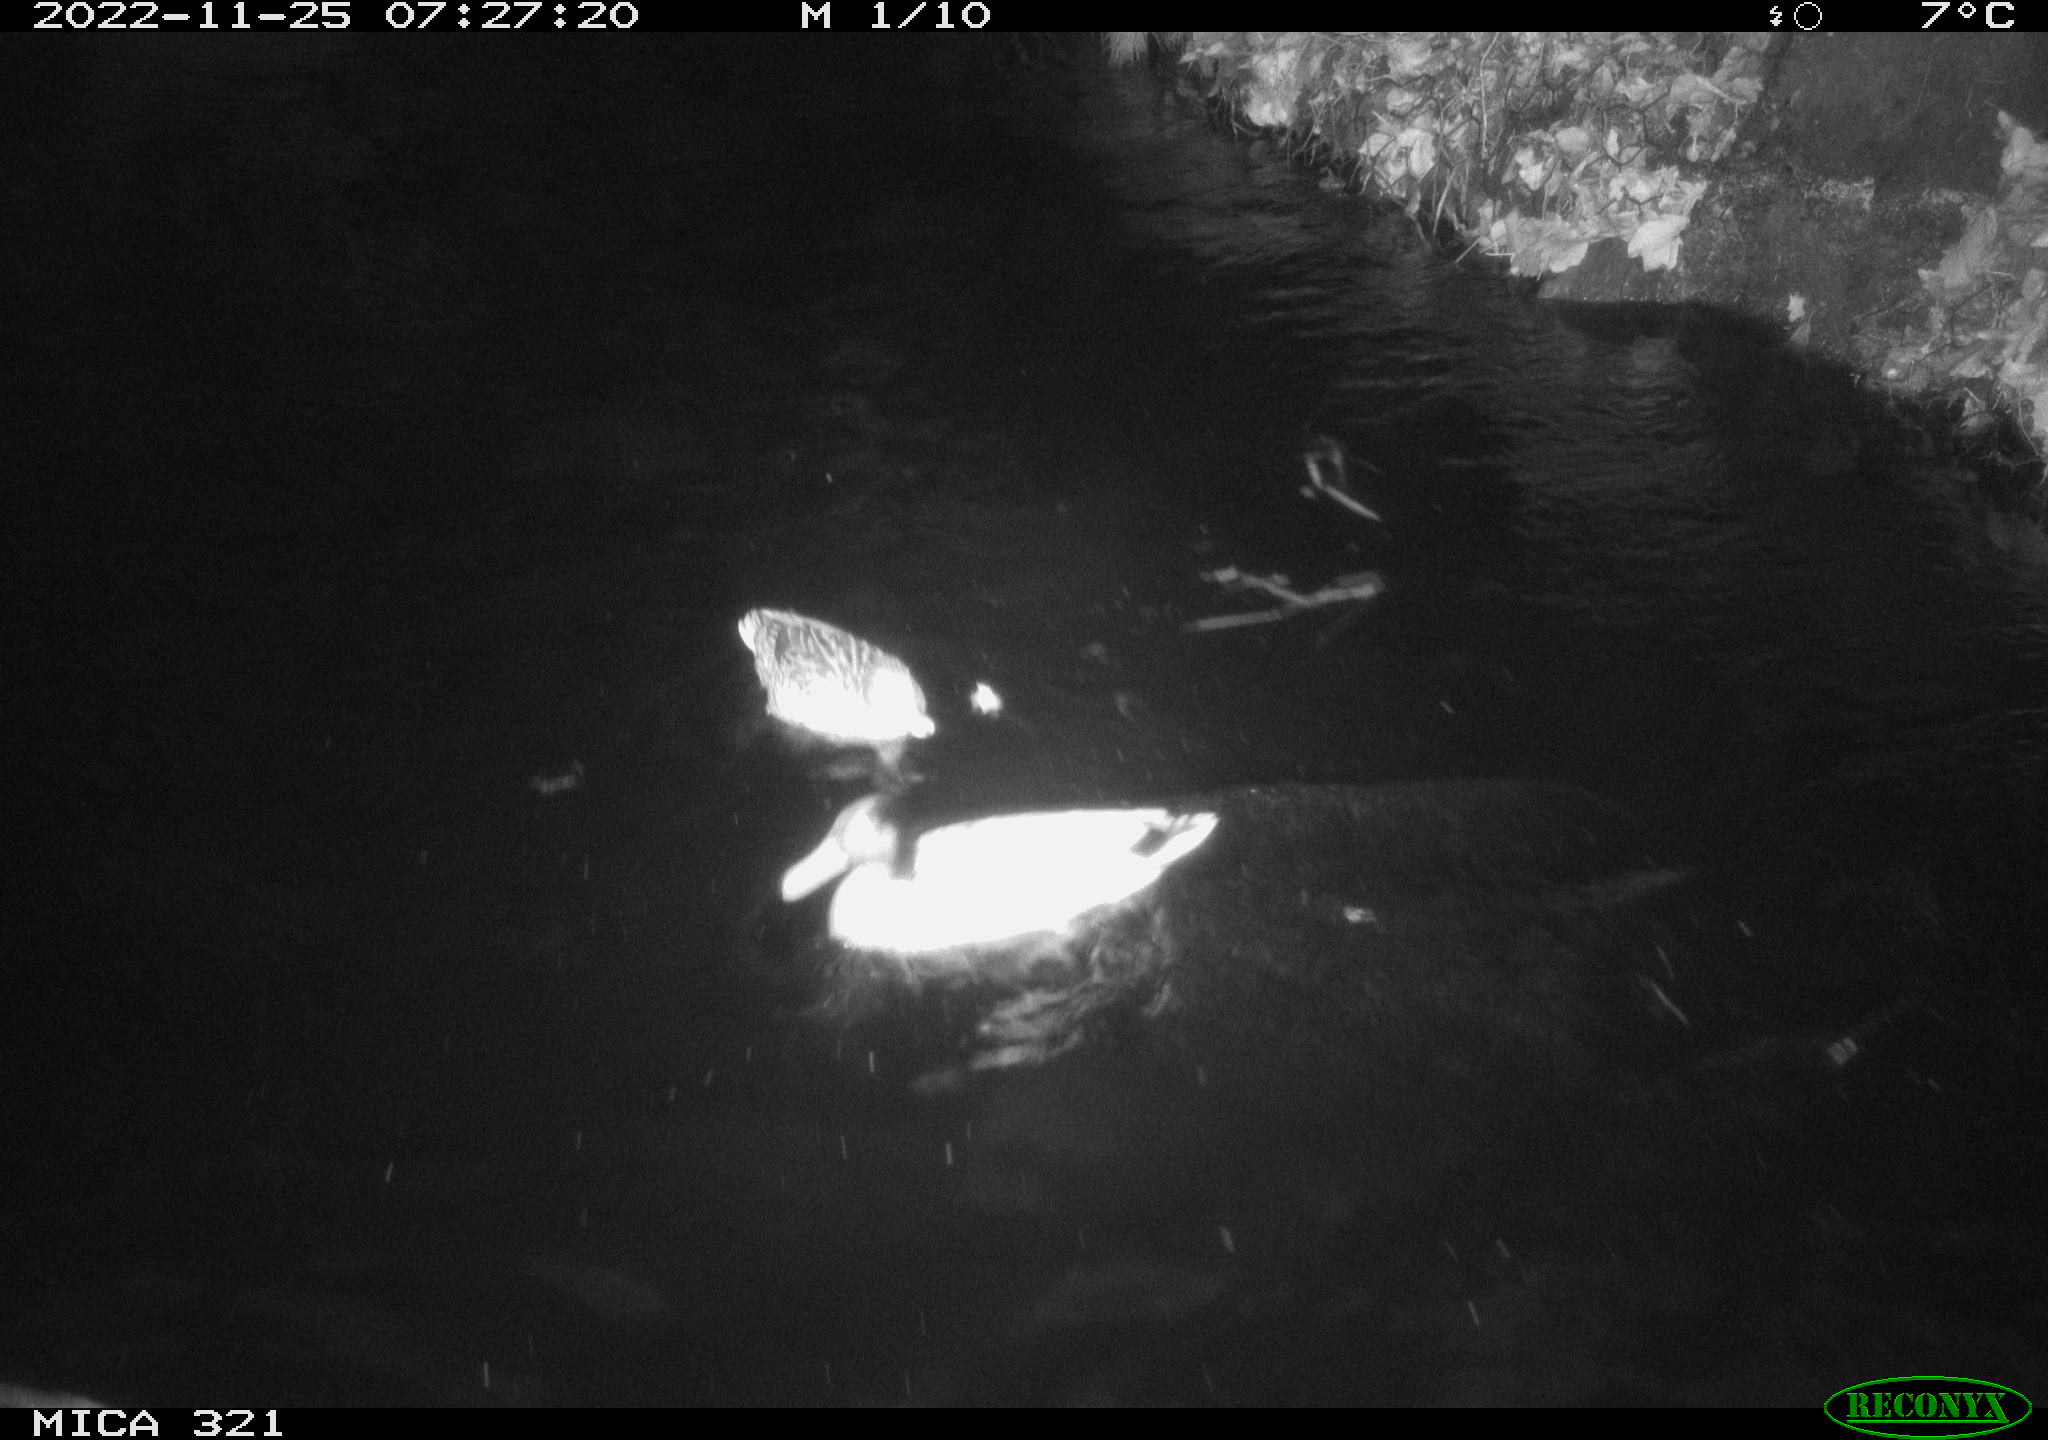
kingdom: Animalia
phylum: Chordata
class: Aves
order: Anseriformes
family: Anatidae
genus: Anas
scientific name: Anas
